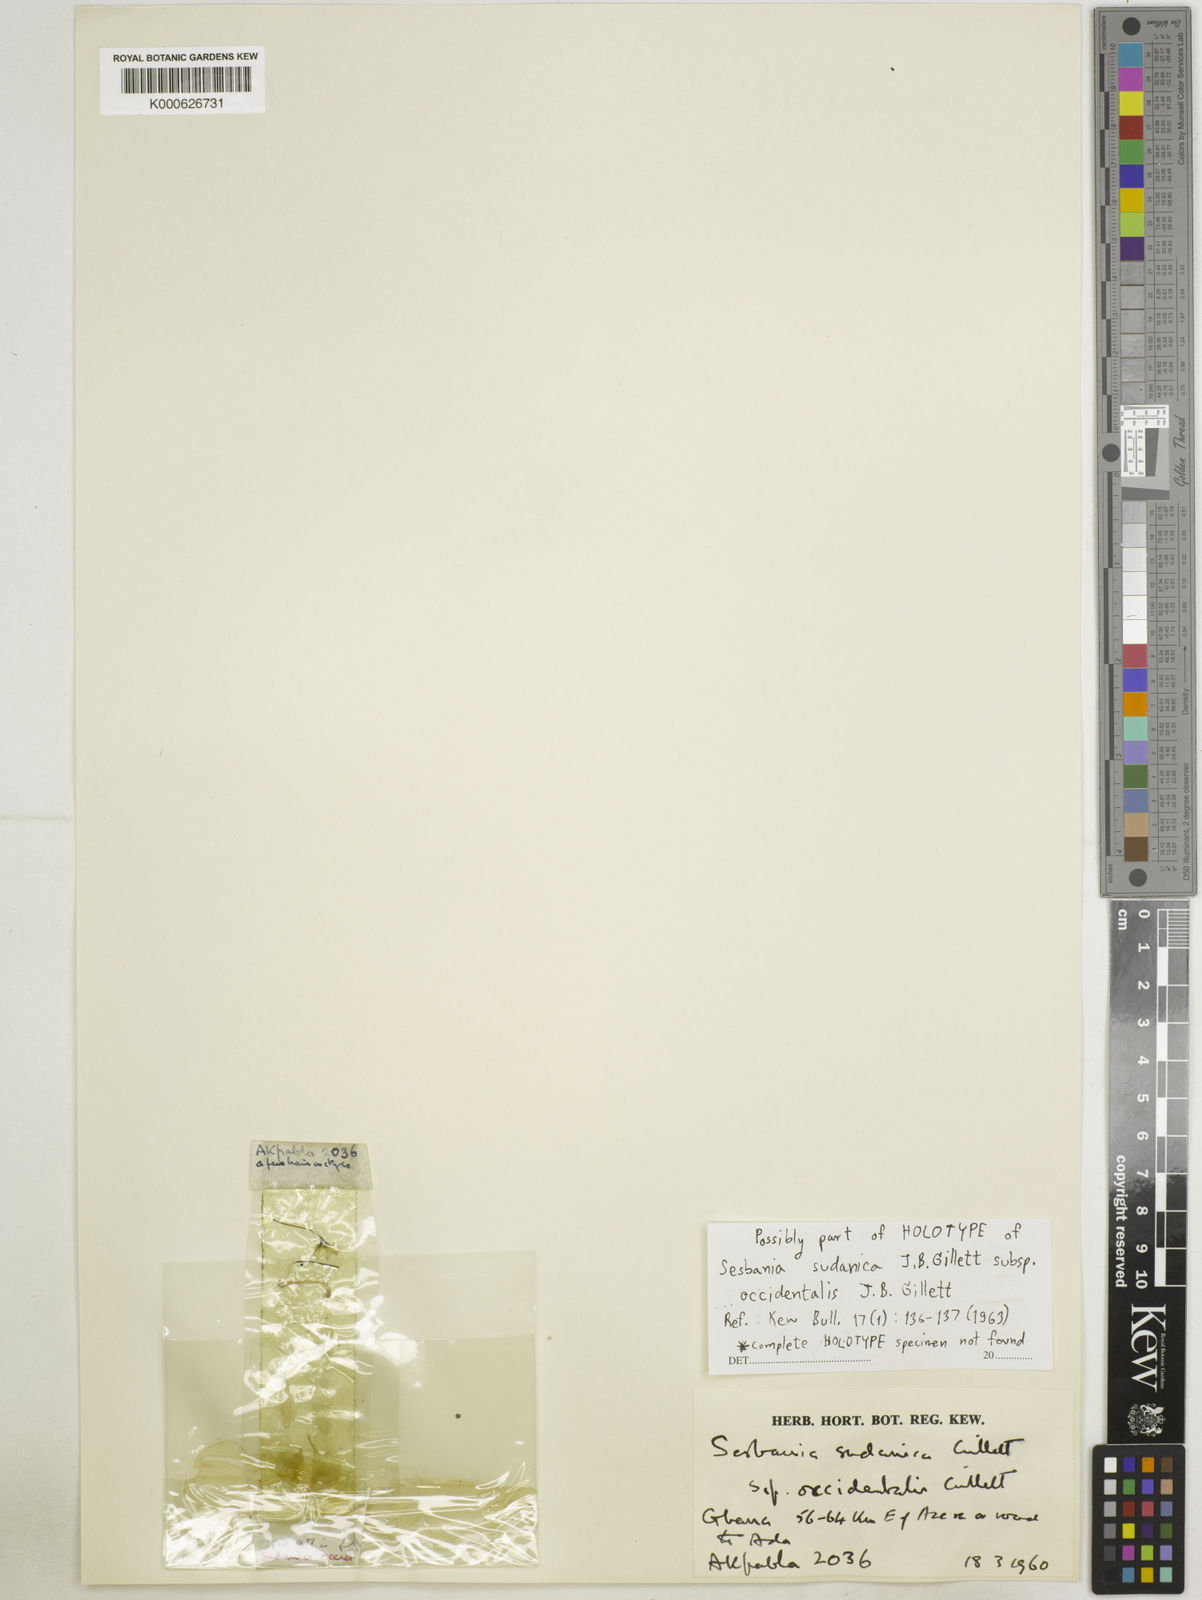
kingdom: Plantae
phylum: Tracheophyta
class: Magnoliopsida
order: Fabales
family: Fabaceae
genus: Sesbania
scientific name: Sesbania sudanica
